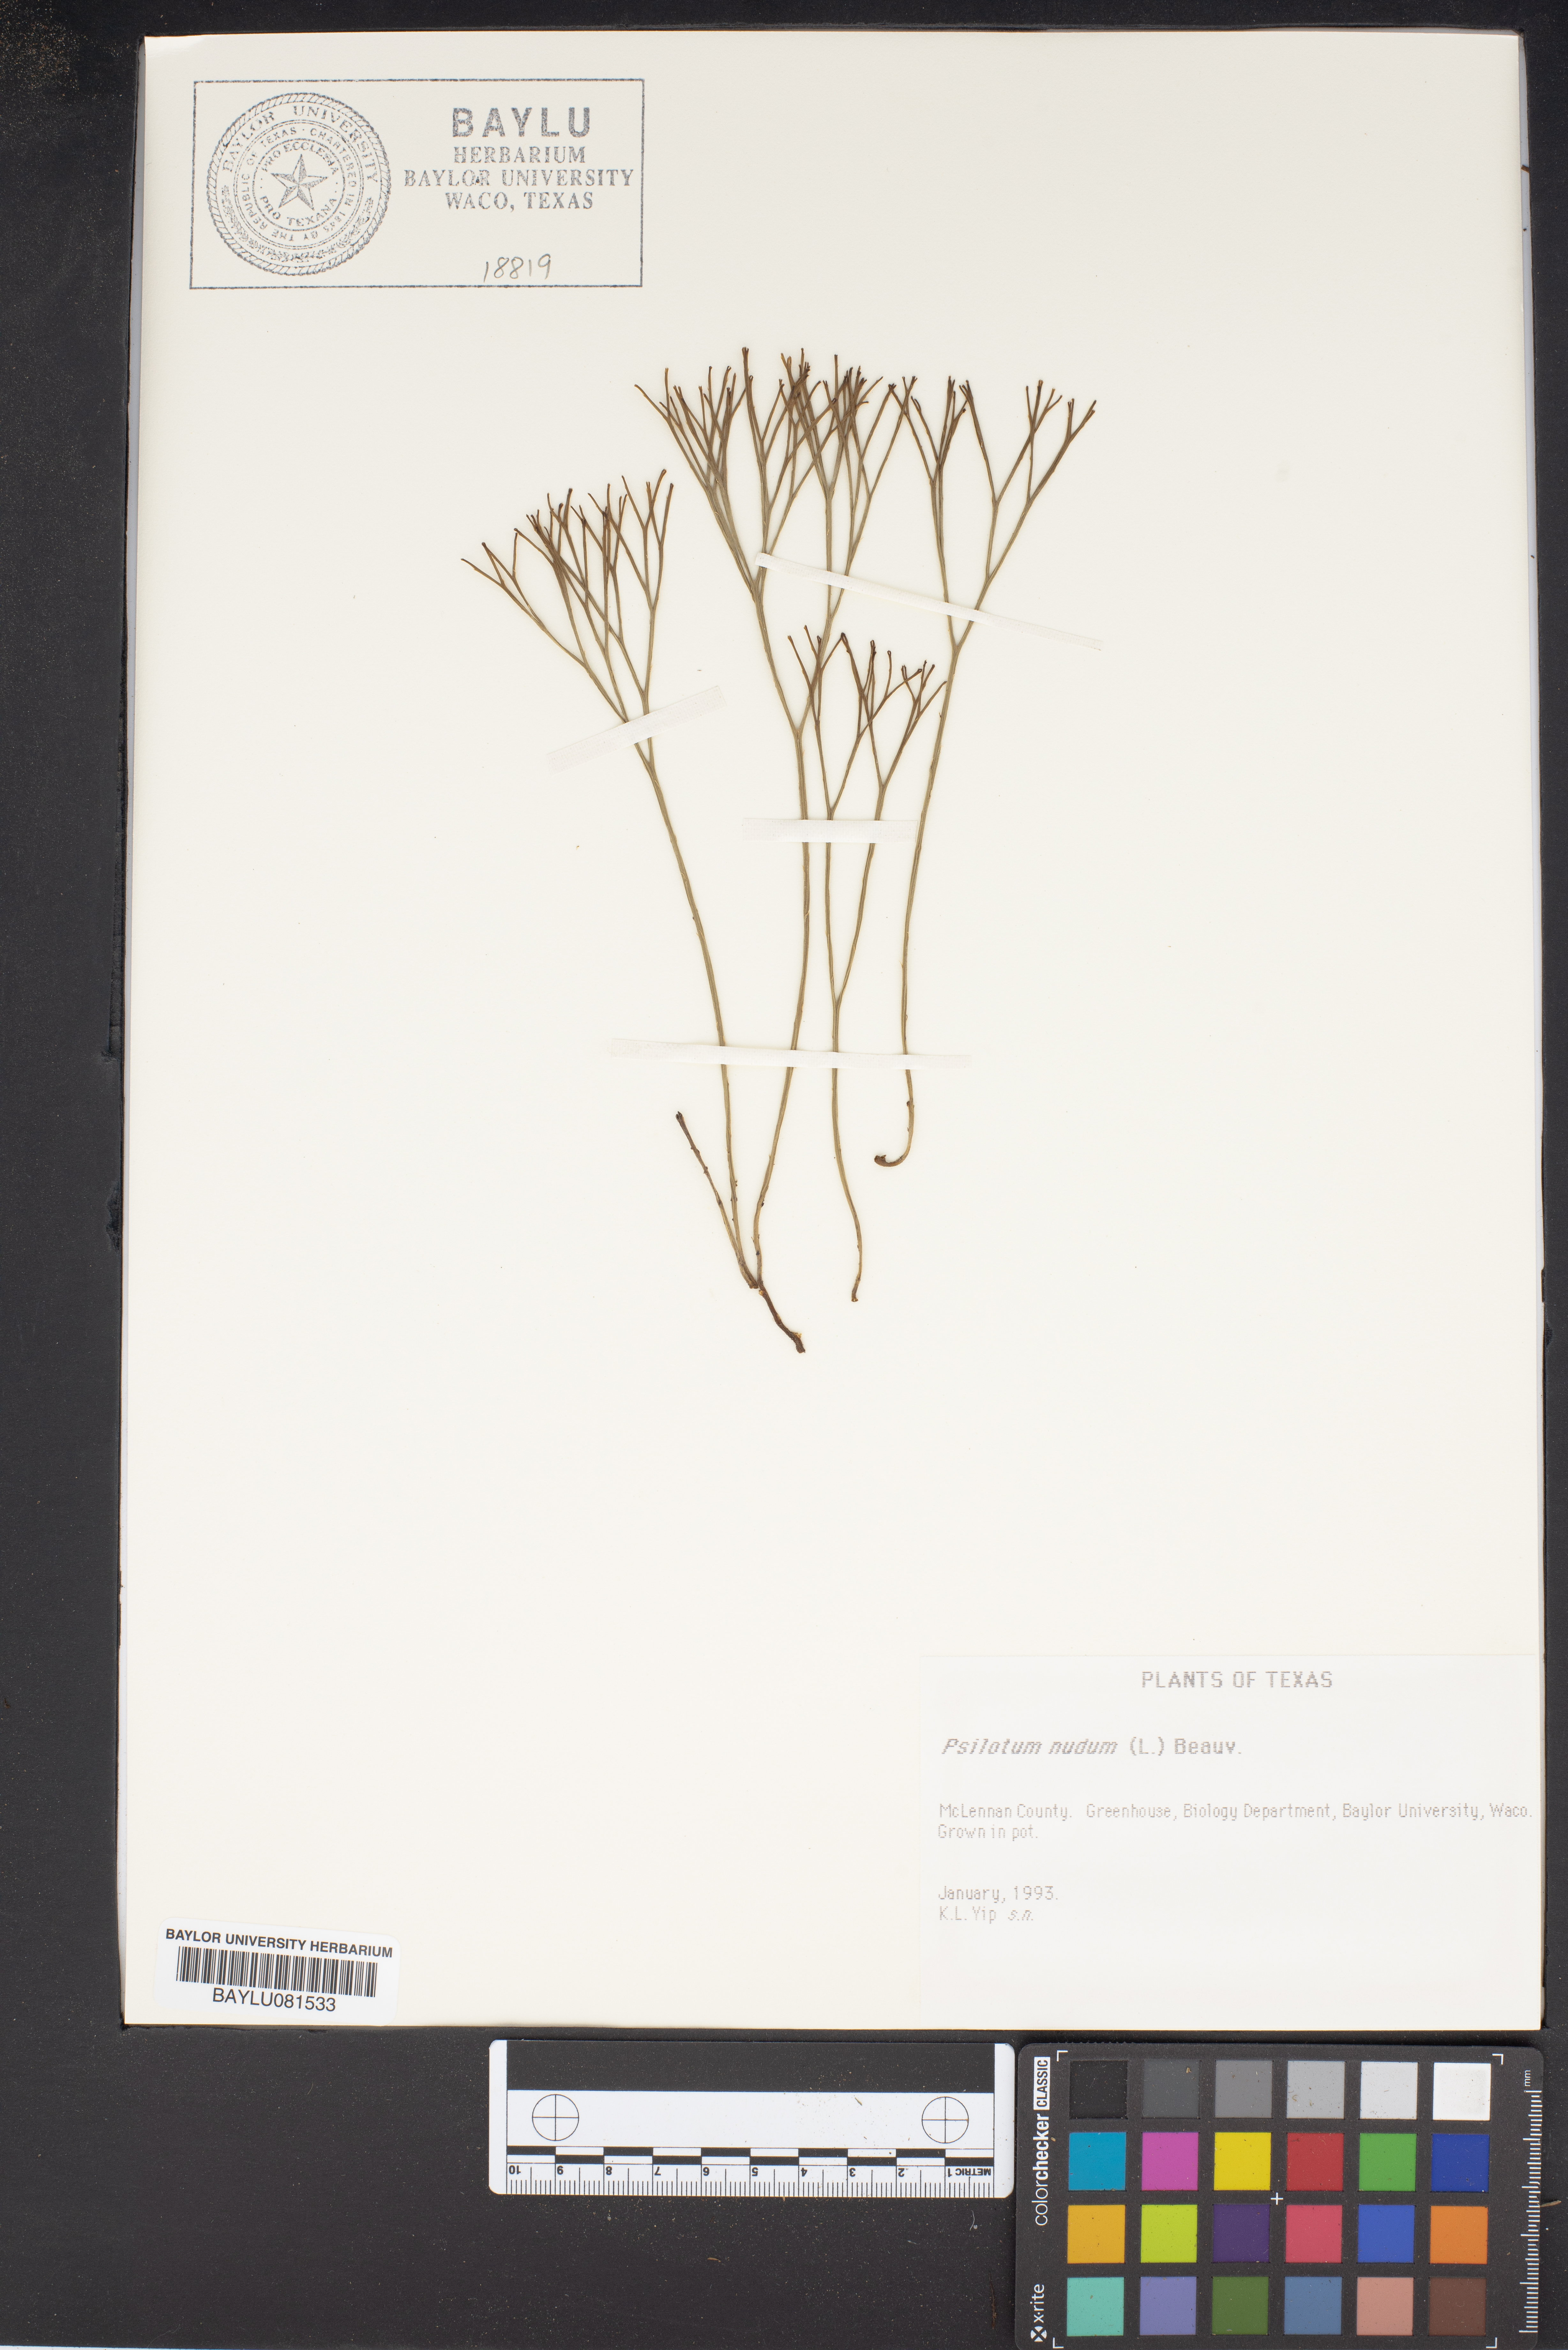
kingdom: Plantae
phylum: Tracheophyta
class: Polypodiopsida
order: Psilotales
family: Psilotaceae
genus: Psilotum
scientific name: Psilotum nudum
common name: Skeleton fork fern
